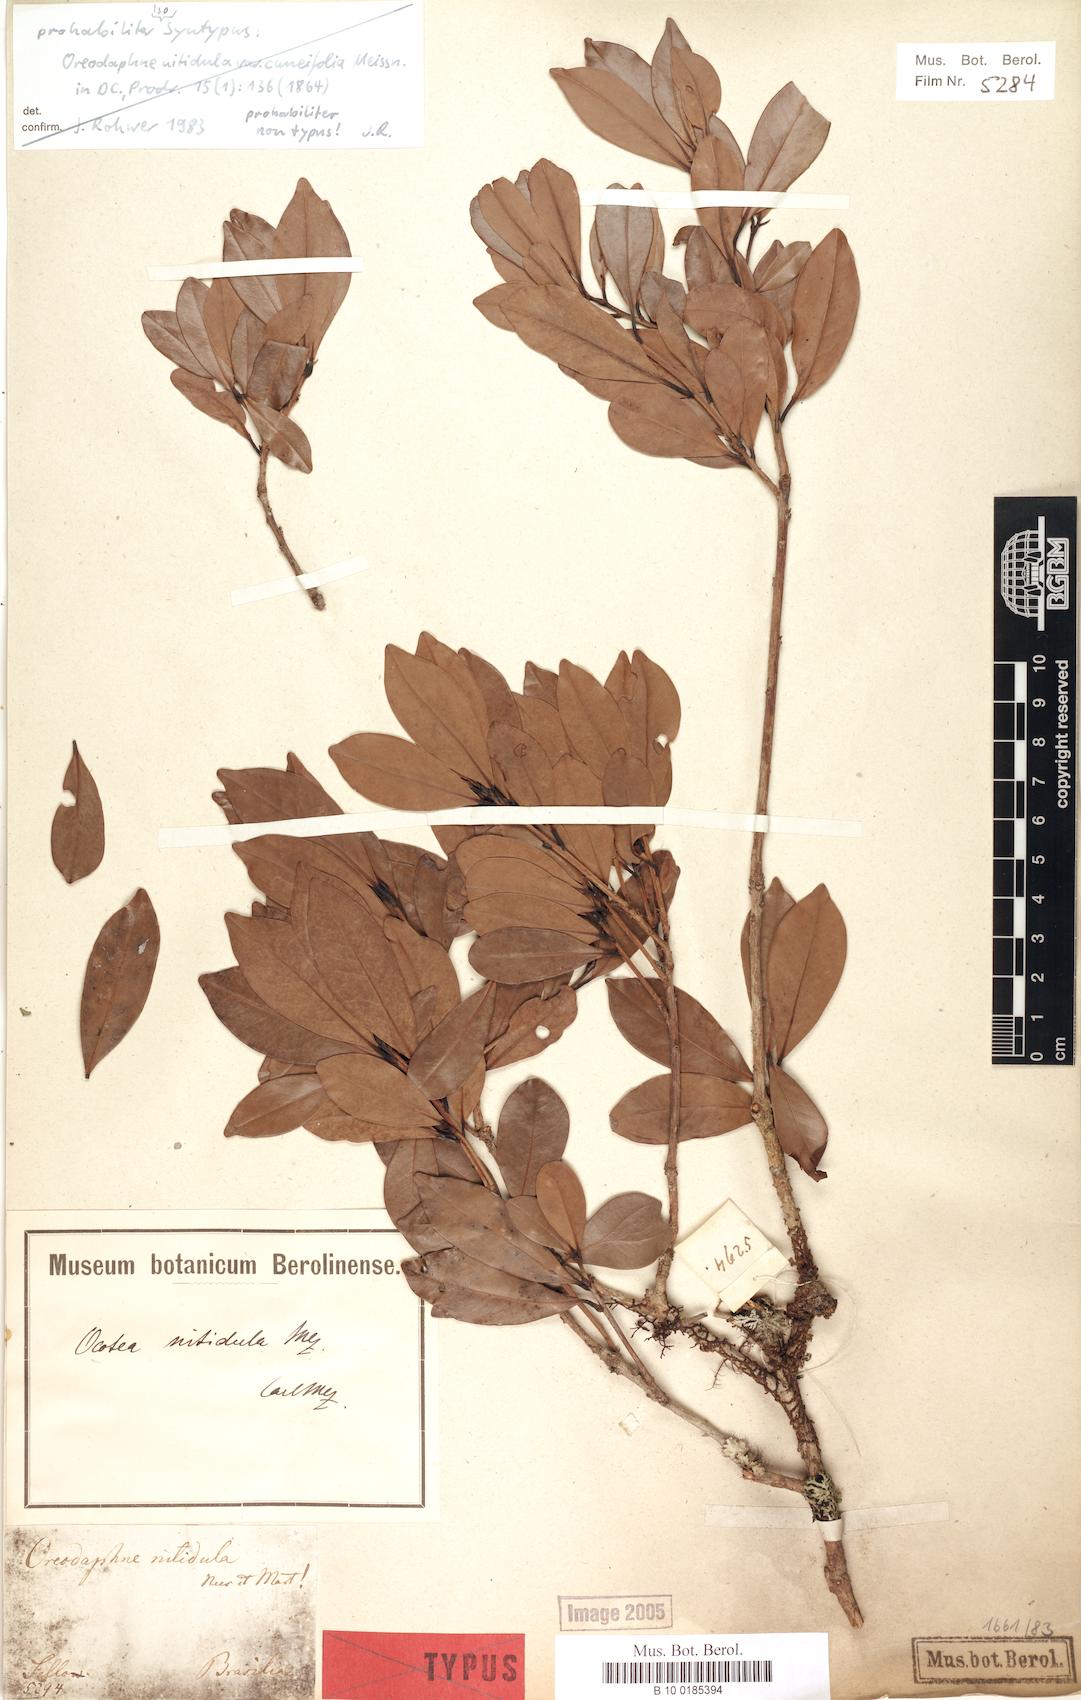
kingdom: Plantae
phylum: Tracheophyta
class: Magnoliopsida
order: Laurales
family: Lauraceae
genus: Nectandra
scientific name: Nectandra nitidula
